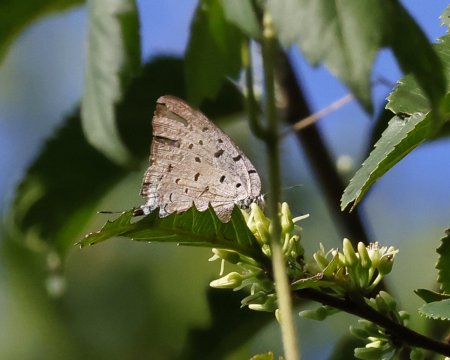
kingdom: Animalia
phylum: Arthropoda
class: Insecta
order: Lepidoptera
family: Lycaenidae
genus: Pseudolycaena
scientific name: Pseudolycaena marsyas
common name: Marsyas Hairstreak
